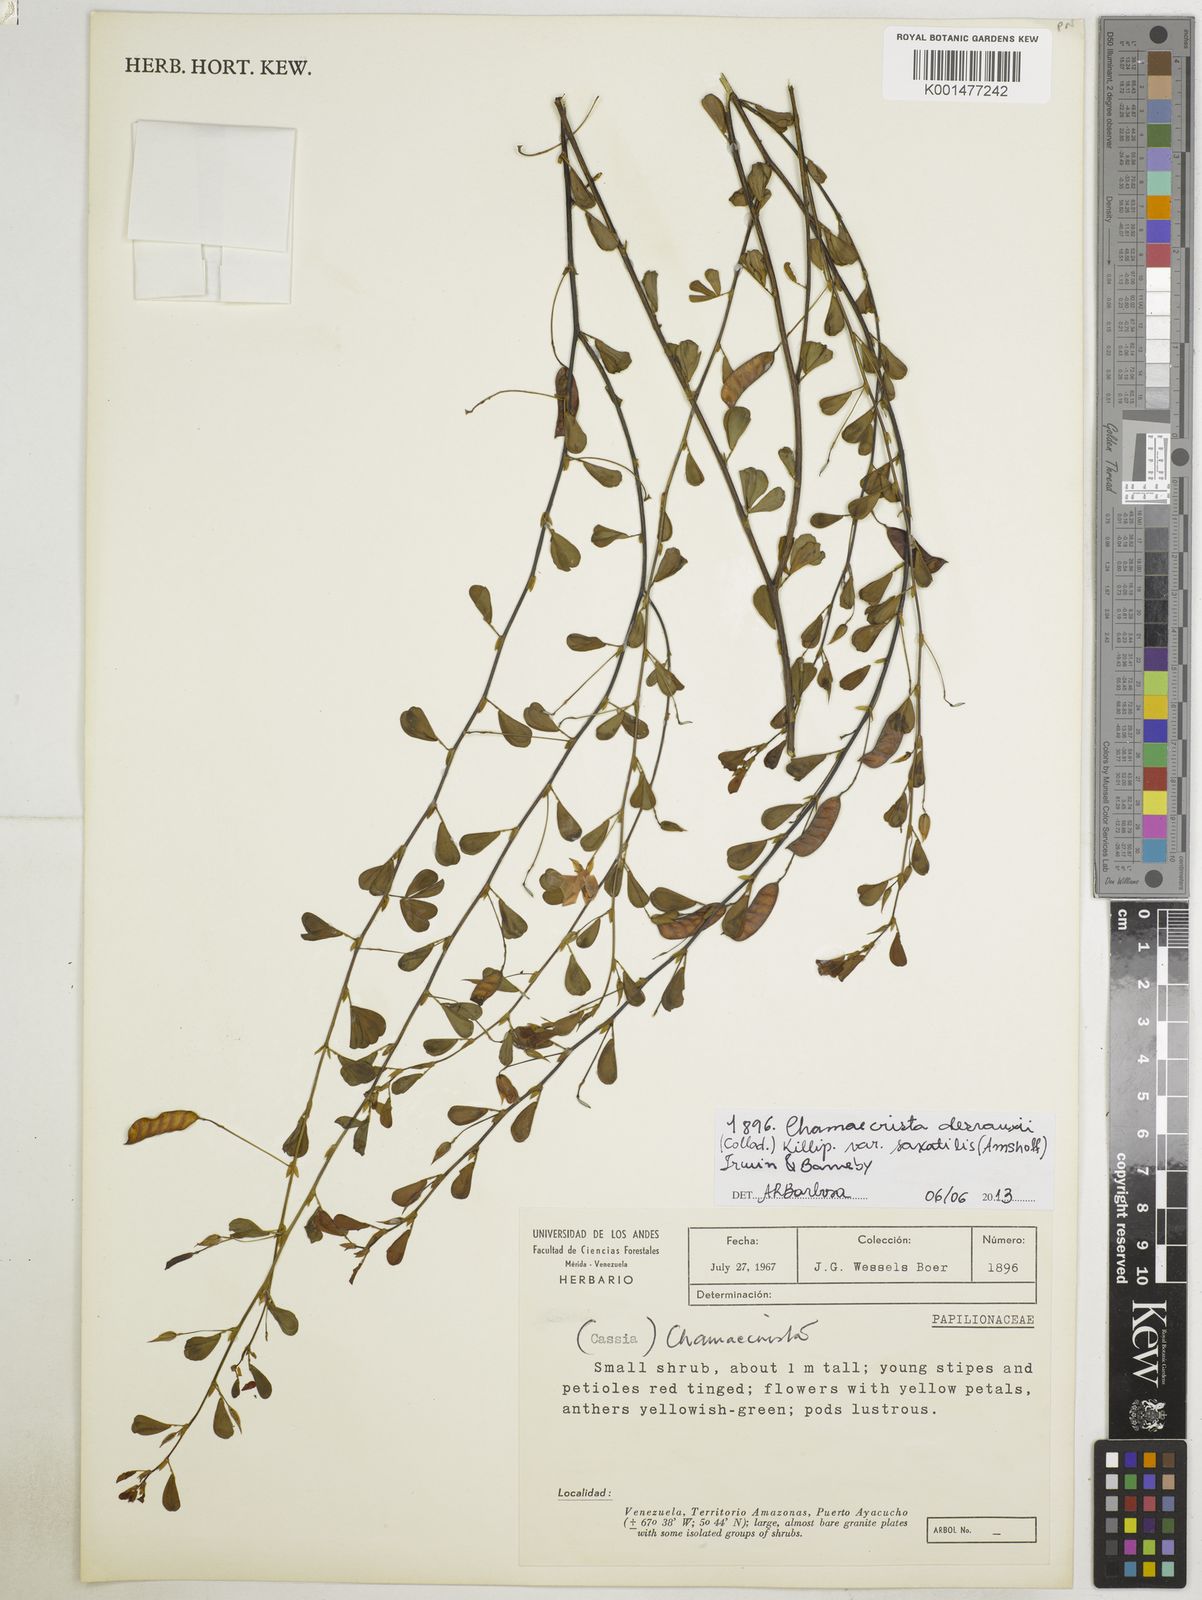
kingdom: Plantae
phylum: Tracheophyta
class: Magnoliopsida
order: Fabales
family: Fabaceae
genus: Chamaecrista
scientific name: Chamaecrista desvauxii
